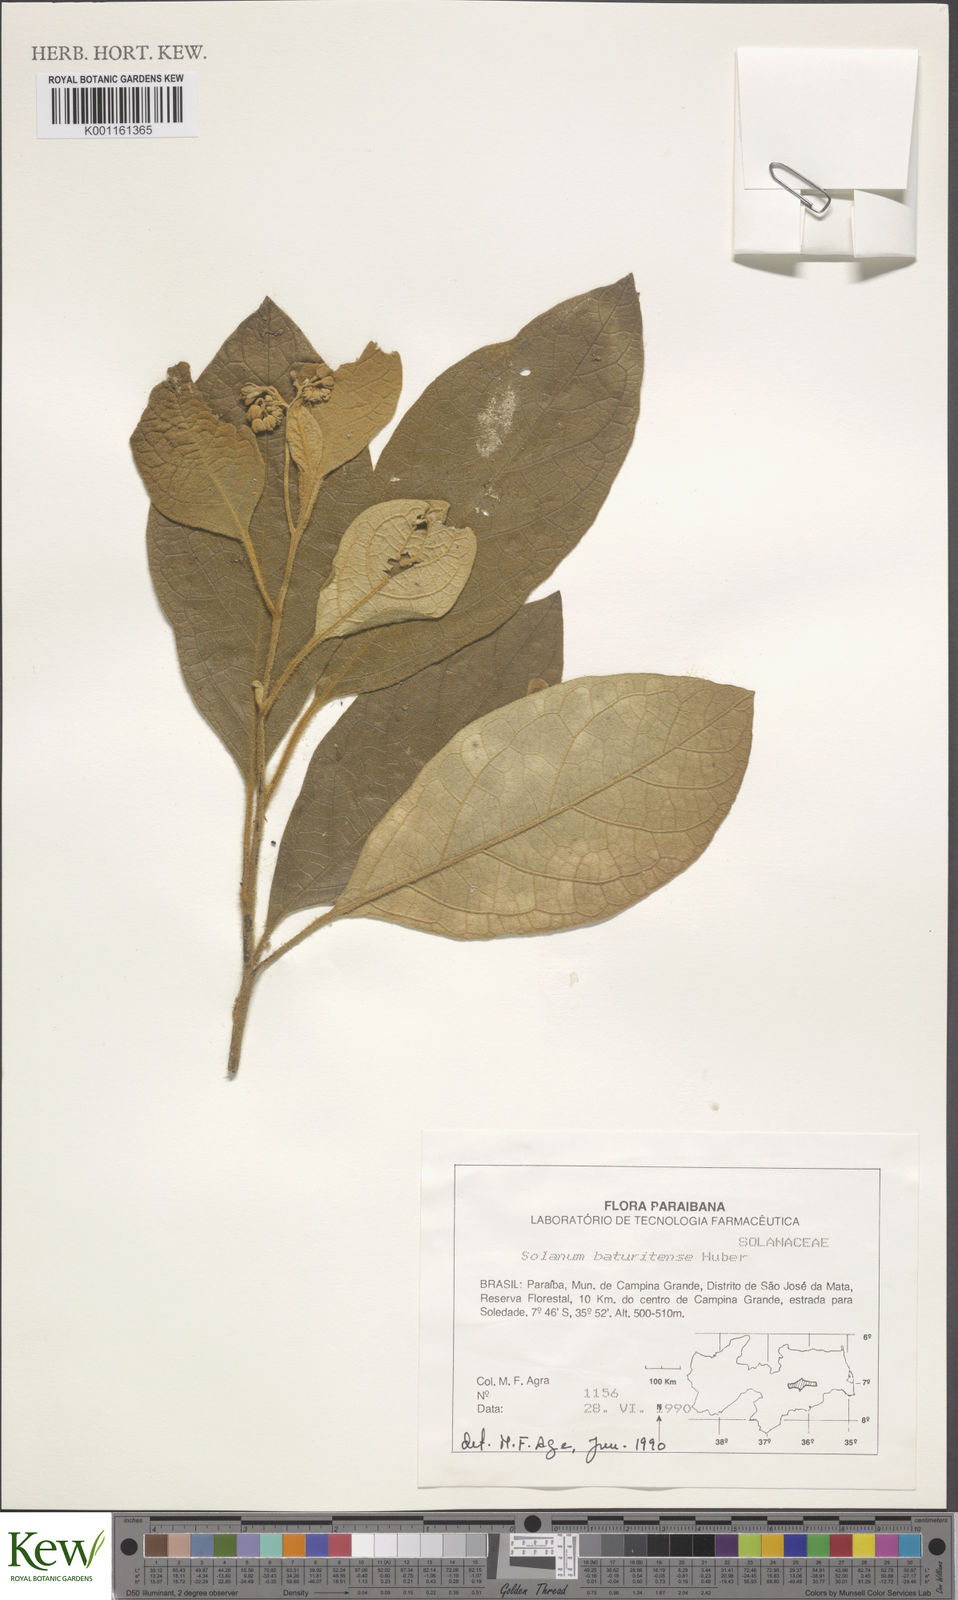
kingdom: Plantae
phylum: Tracheophyta
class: Magnoliopsida
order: Solanales
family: Solanaceae
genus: Solanum
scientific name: Solanum rhytidoandrum
